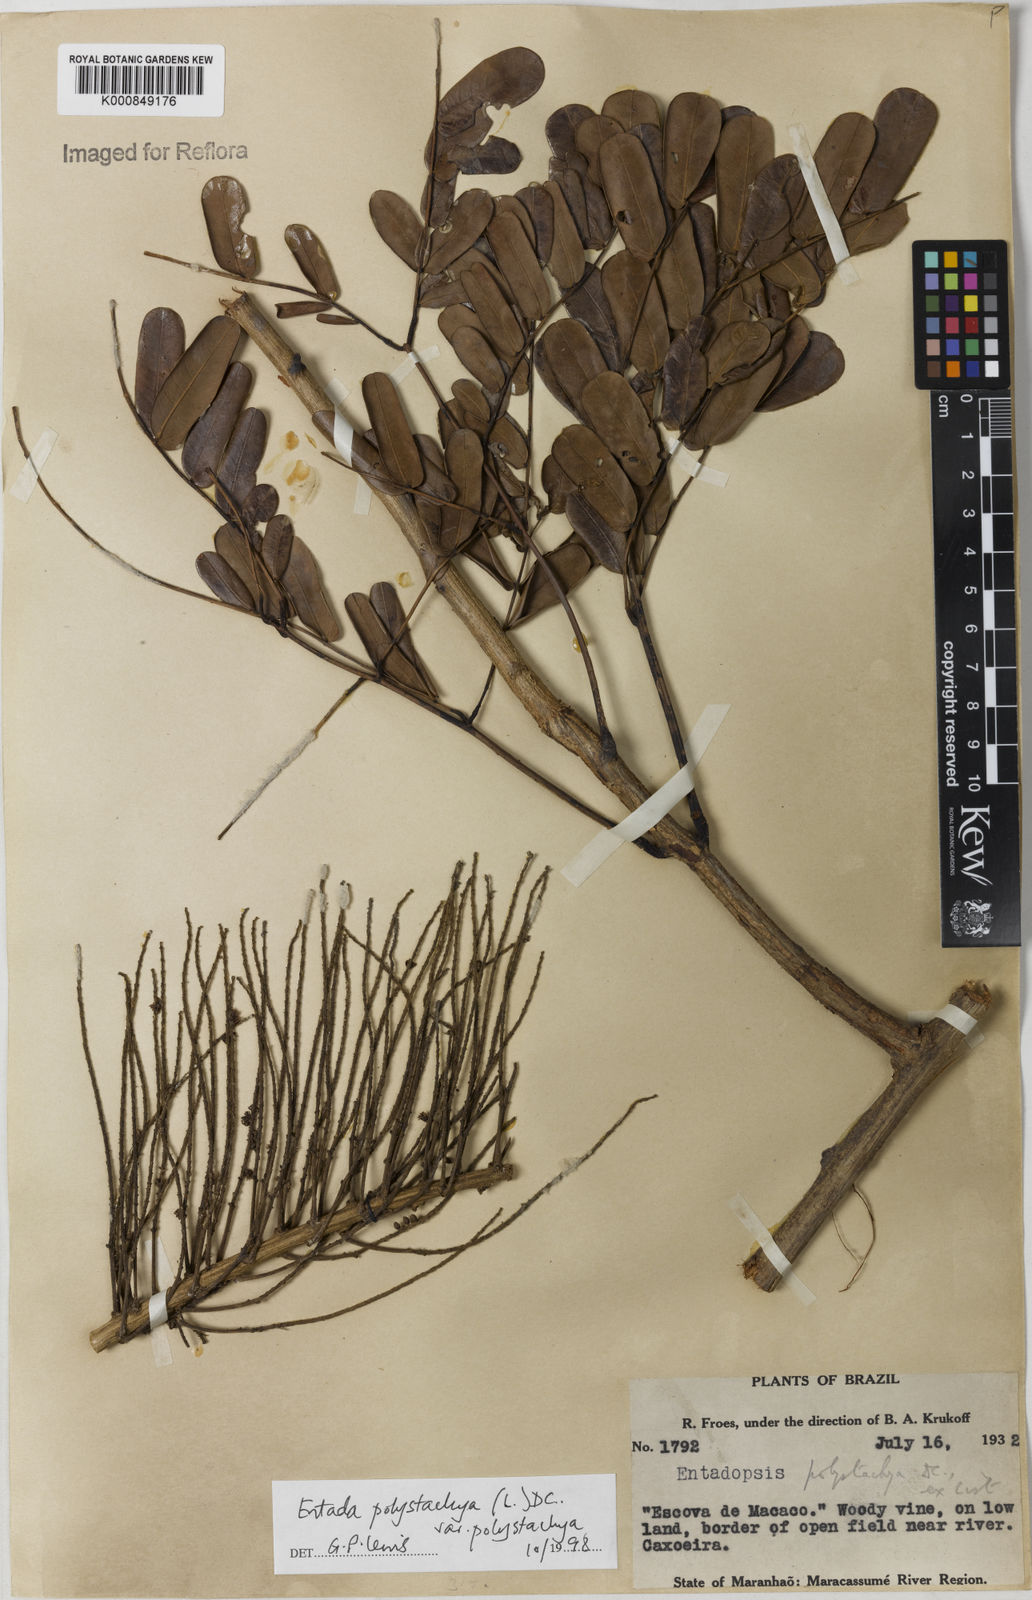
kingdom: Plantae
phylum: Tracheophyta
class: Magnoliopsida
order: Fabales
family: Fabaceae
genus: Entada
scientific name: Entada polystachya
